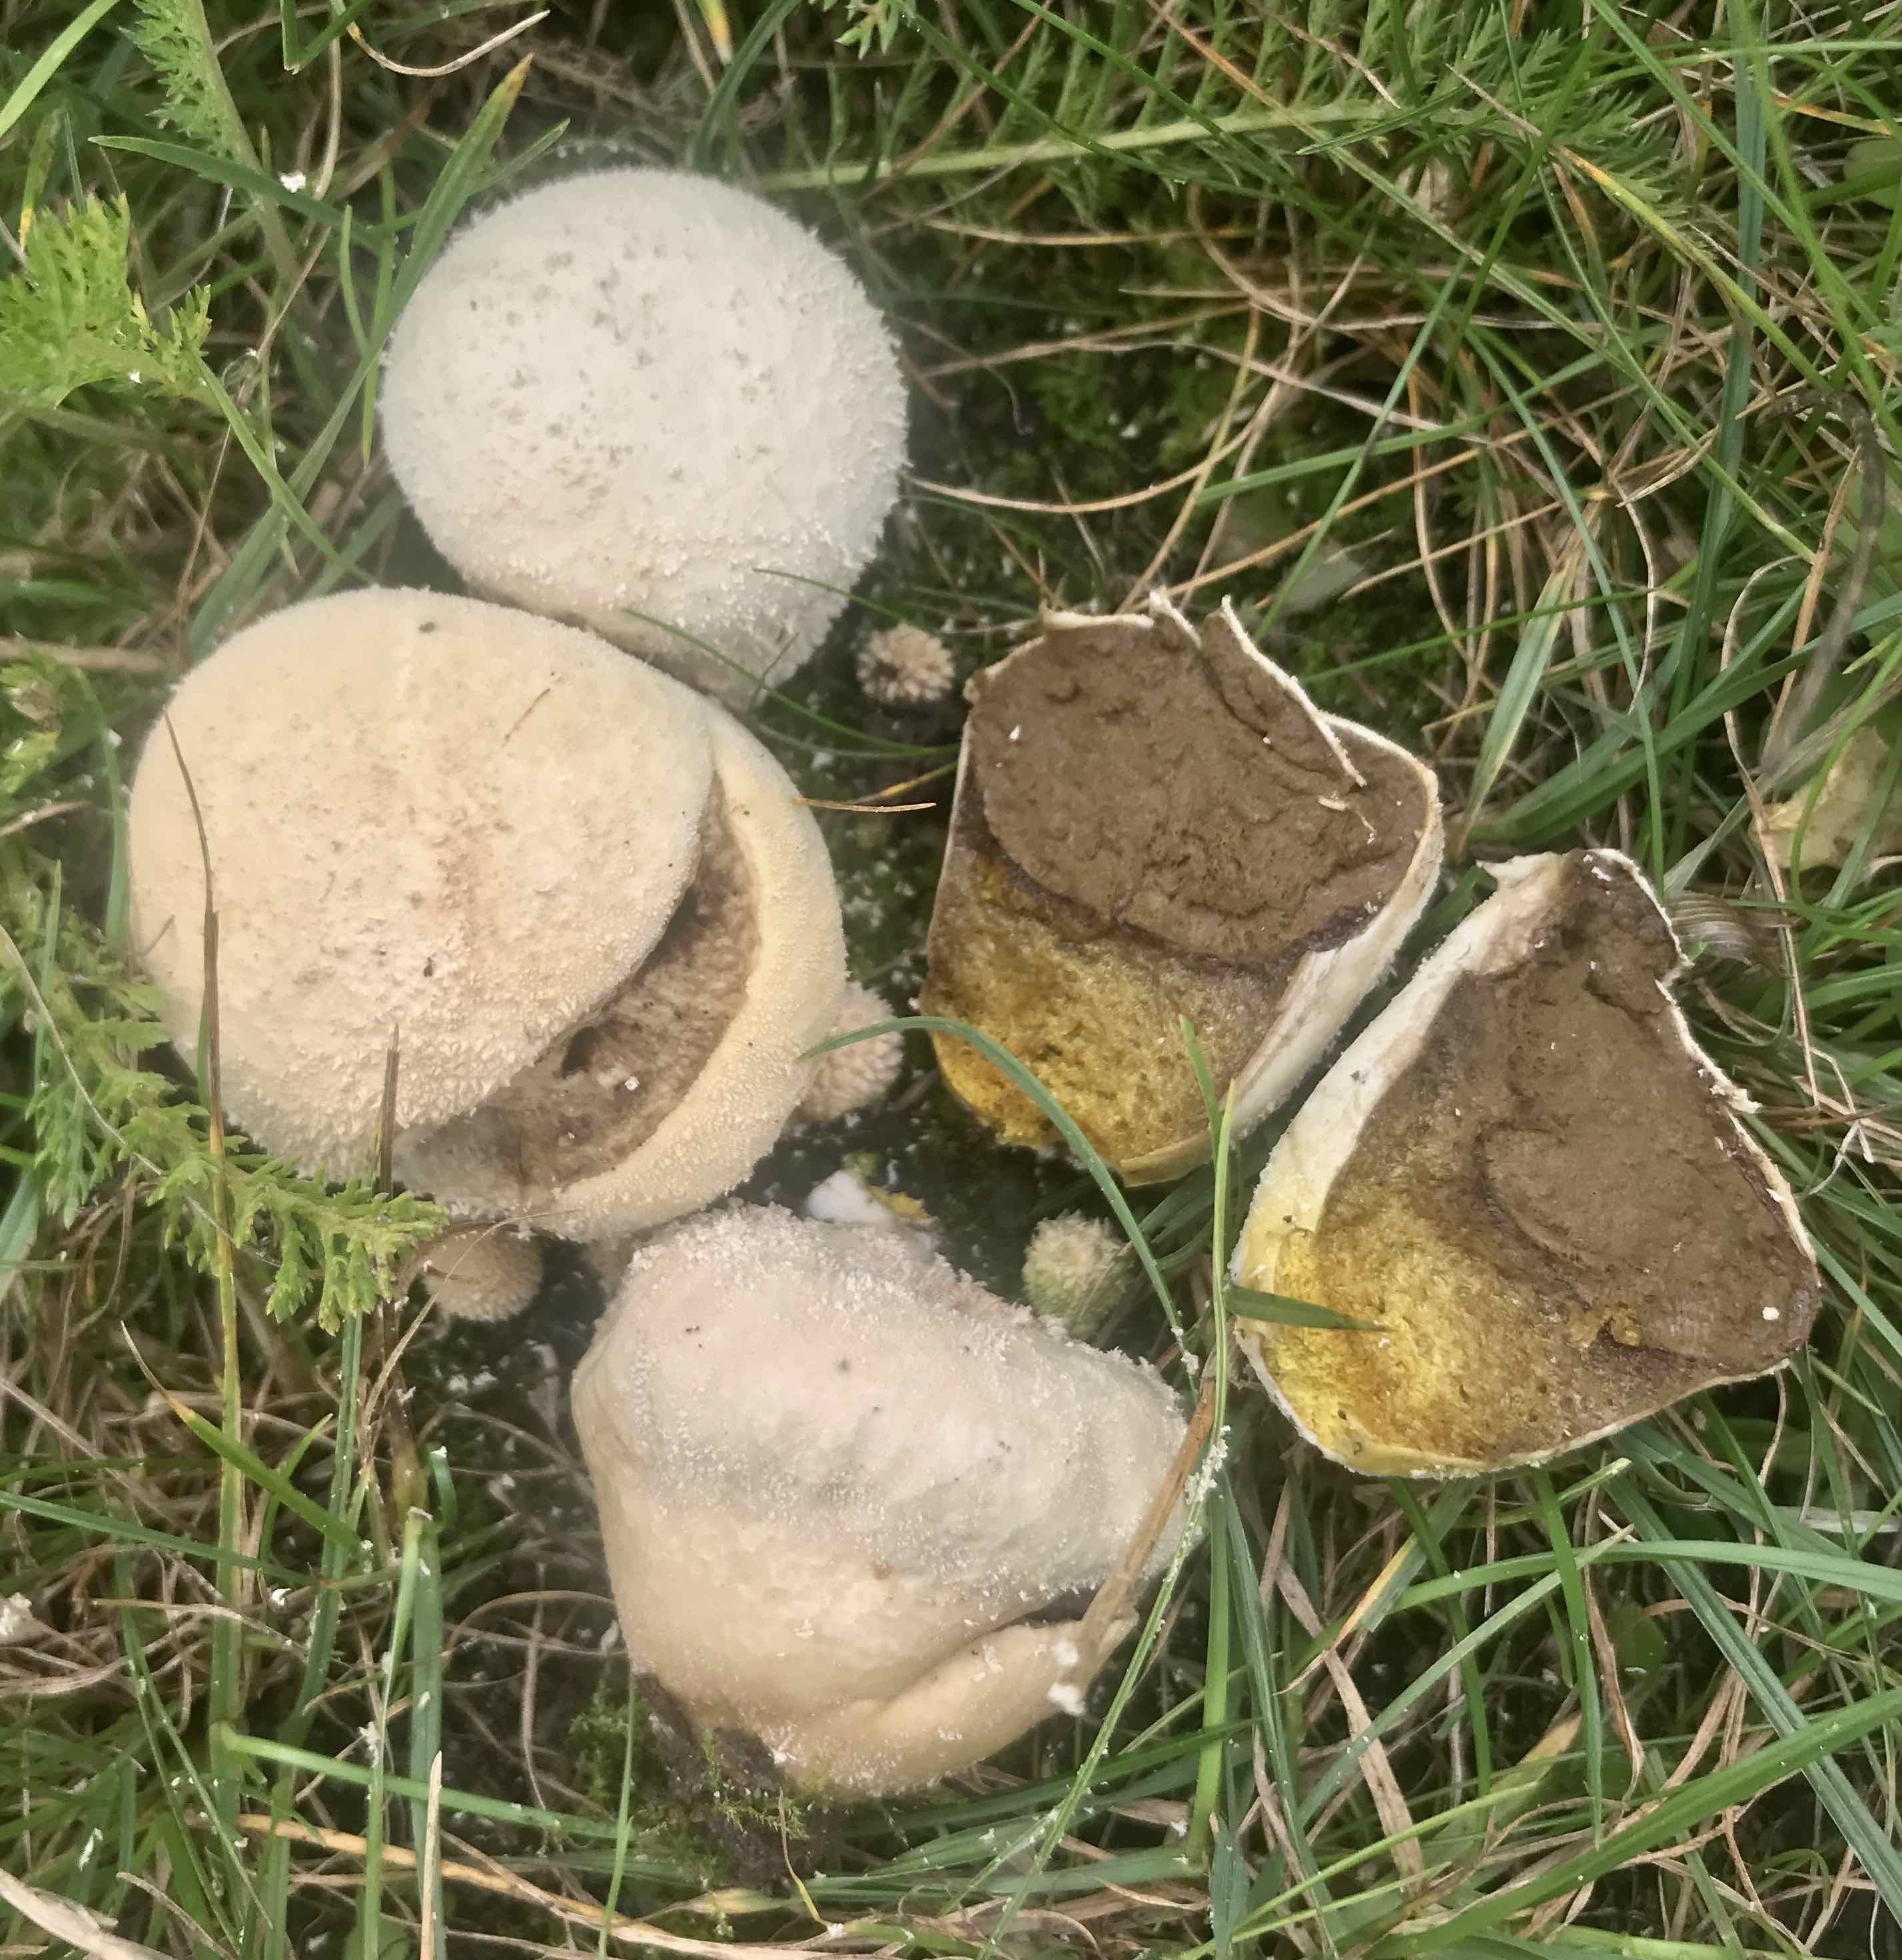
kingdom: Fungi
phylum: Basidiomycota
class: Agaricomycetes
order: Agaricales
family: Lycoperdaceae
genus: Lycoperdon
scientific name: Lycoperdon pratense
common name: flad støvbold
